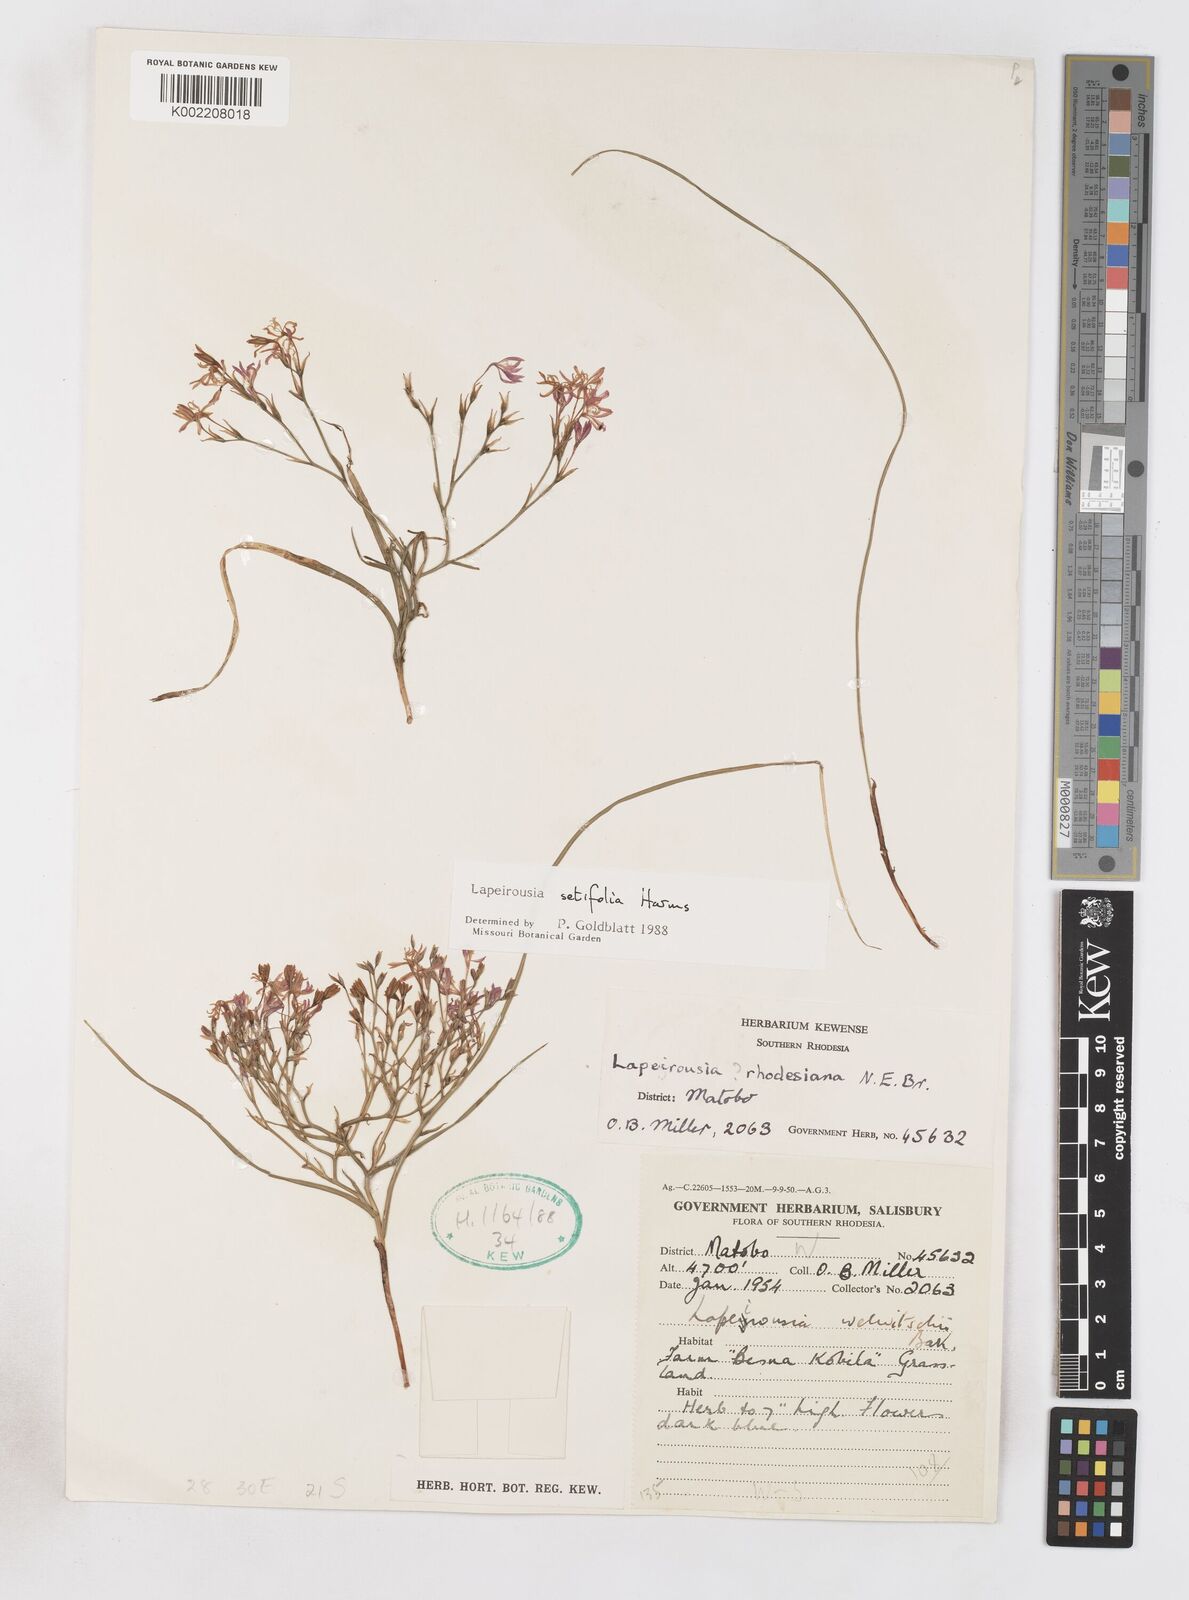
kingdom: Plantae
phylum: Tracheophyta
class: Liliopsida
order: Asparagales
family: Iridaceae
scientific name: Iridaceae
